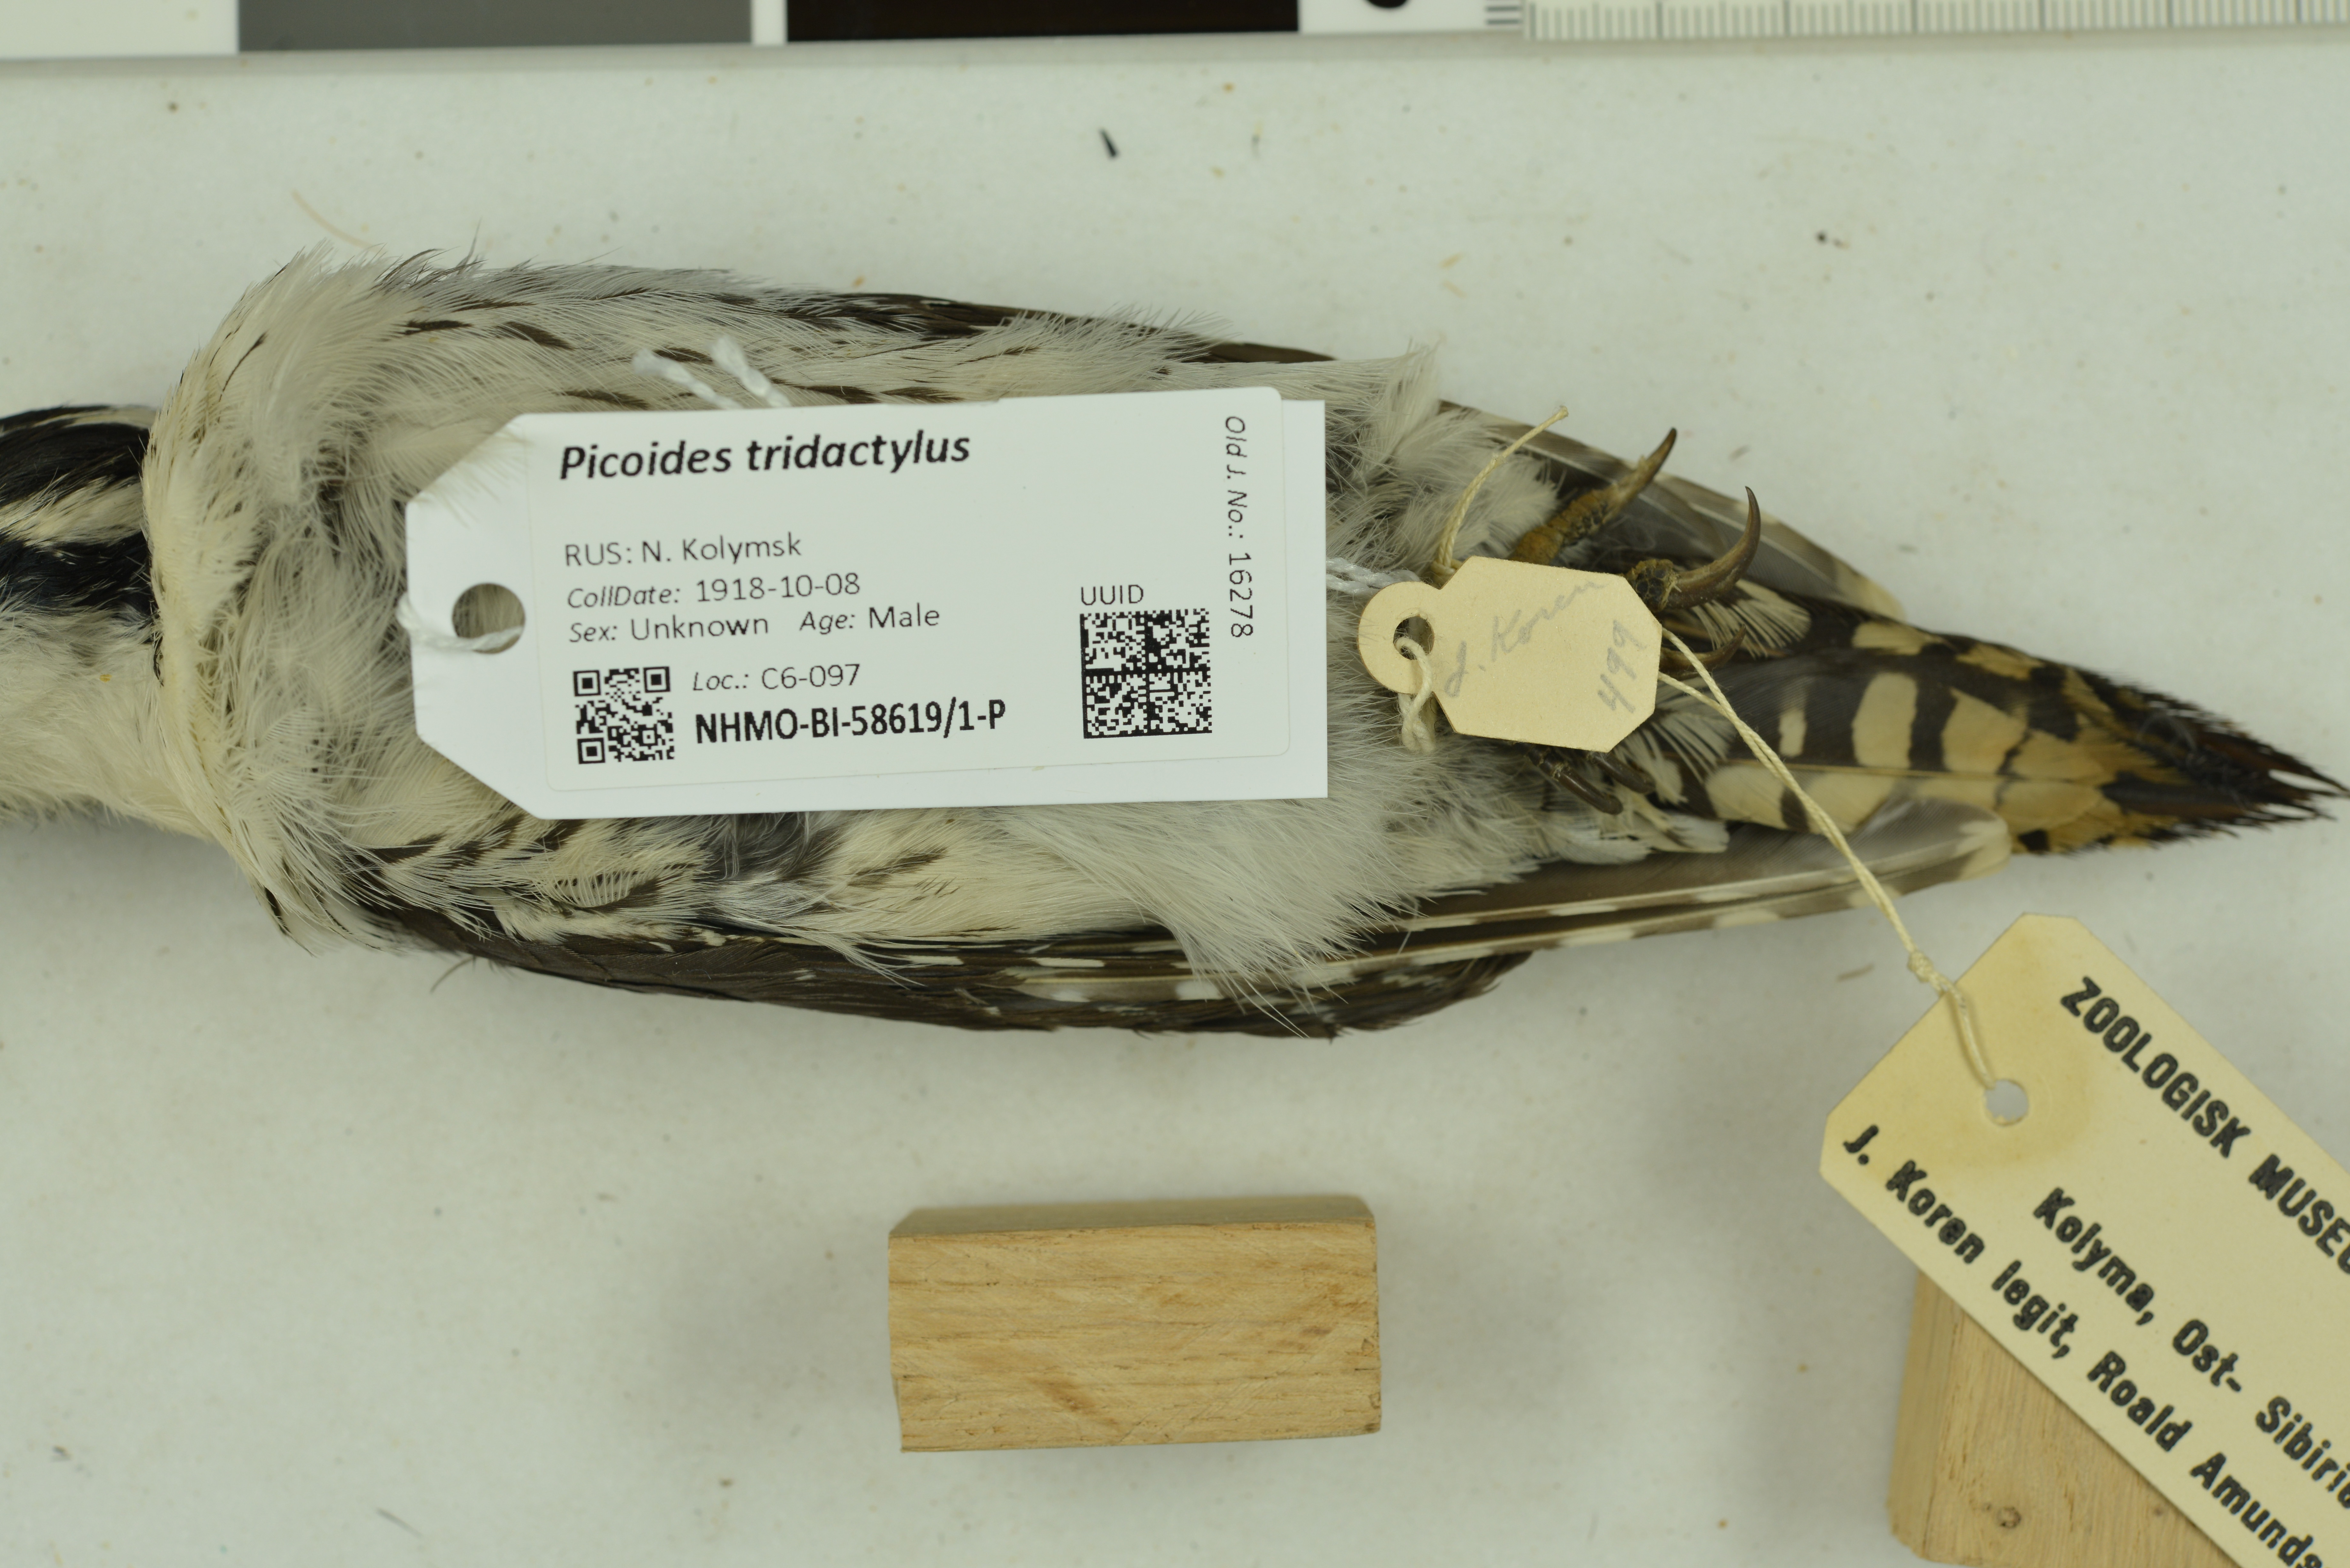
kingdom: Animalia
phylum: Chordata
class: Aves
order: Piciformes
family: Picidae
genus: Picoides
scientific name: Picoides tridactylus
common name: Eurasian three-toed woodpecker
